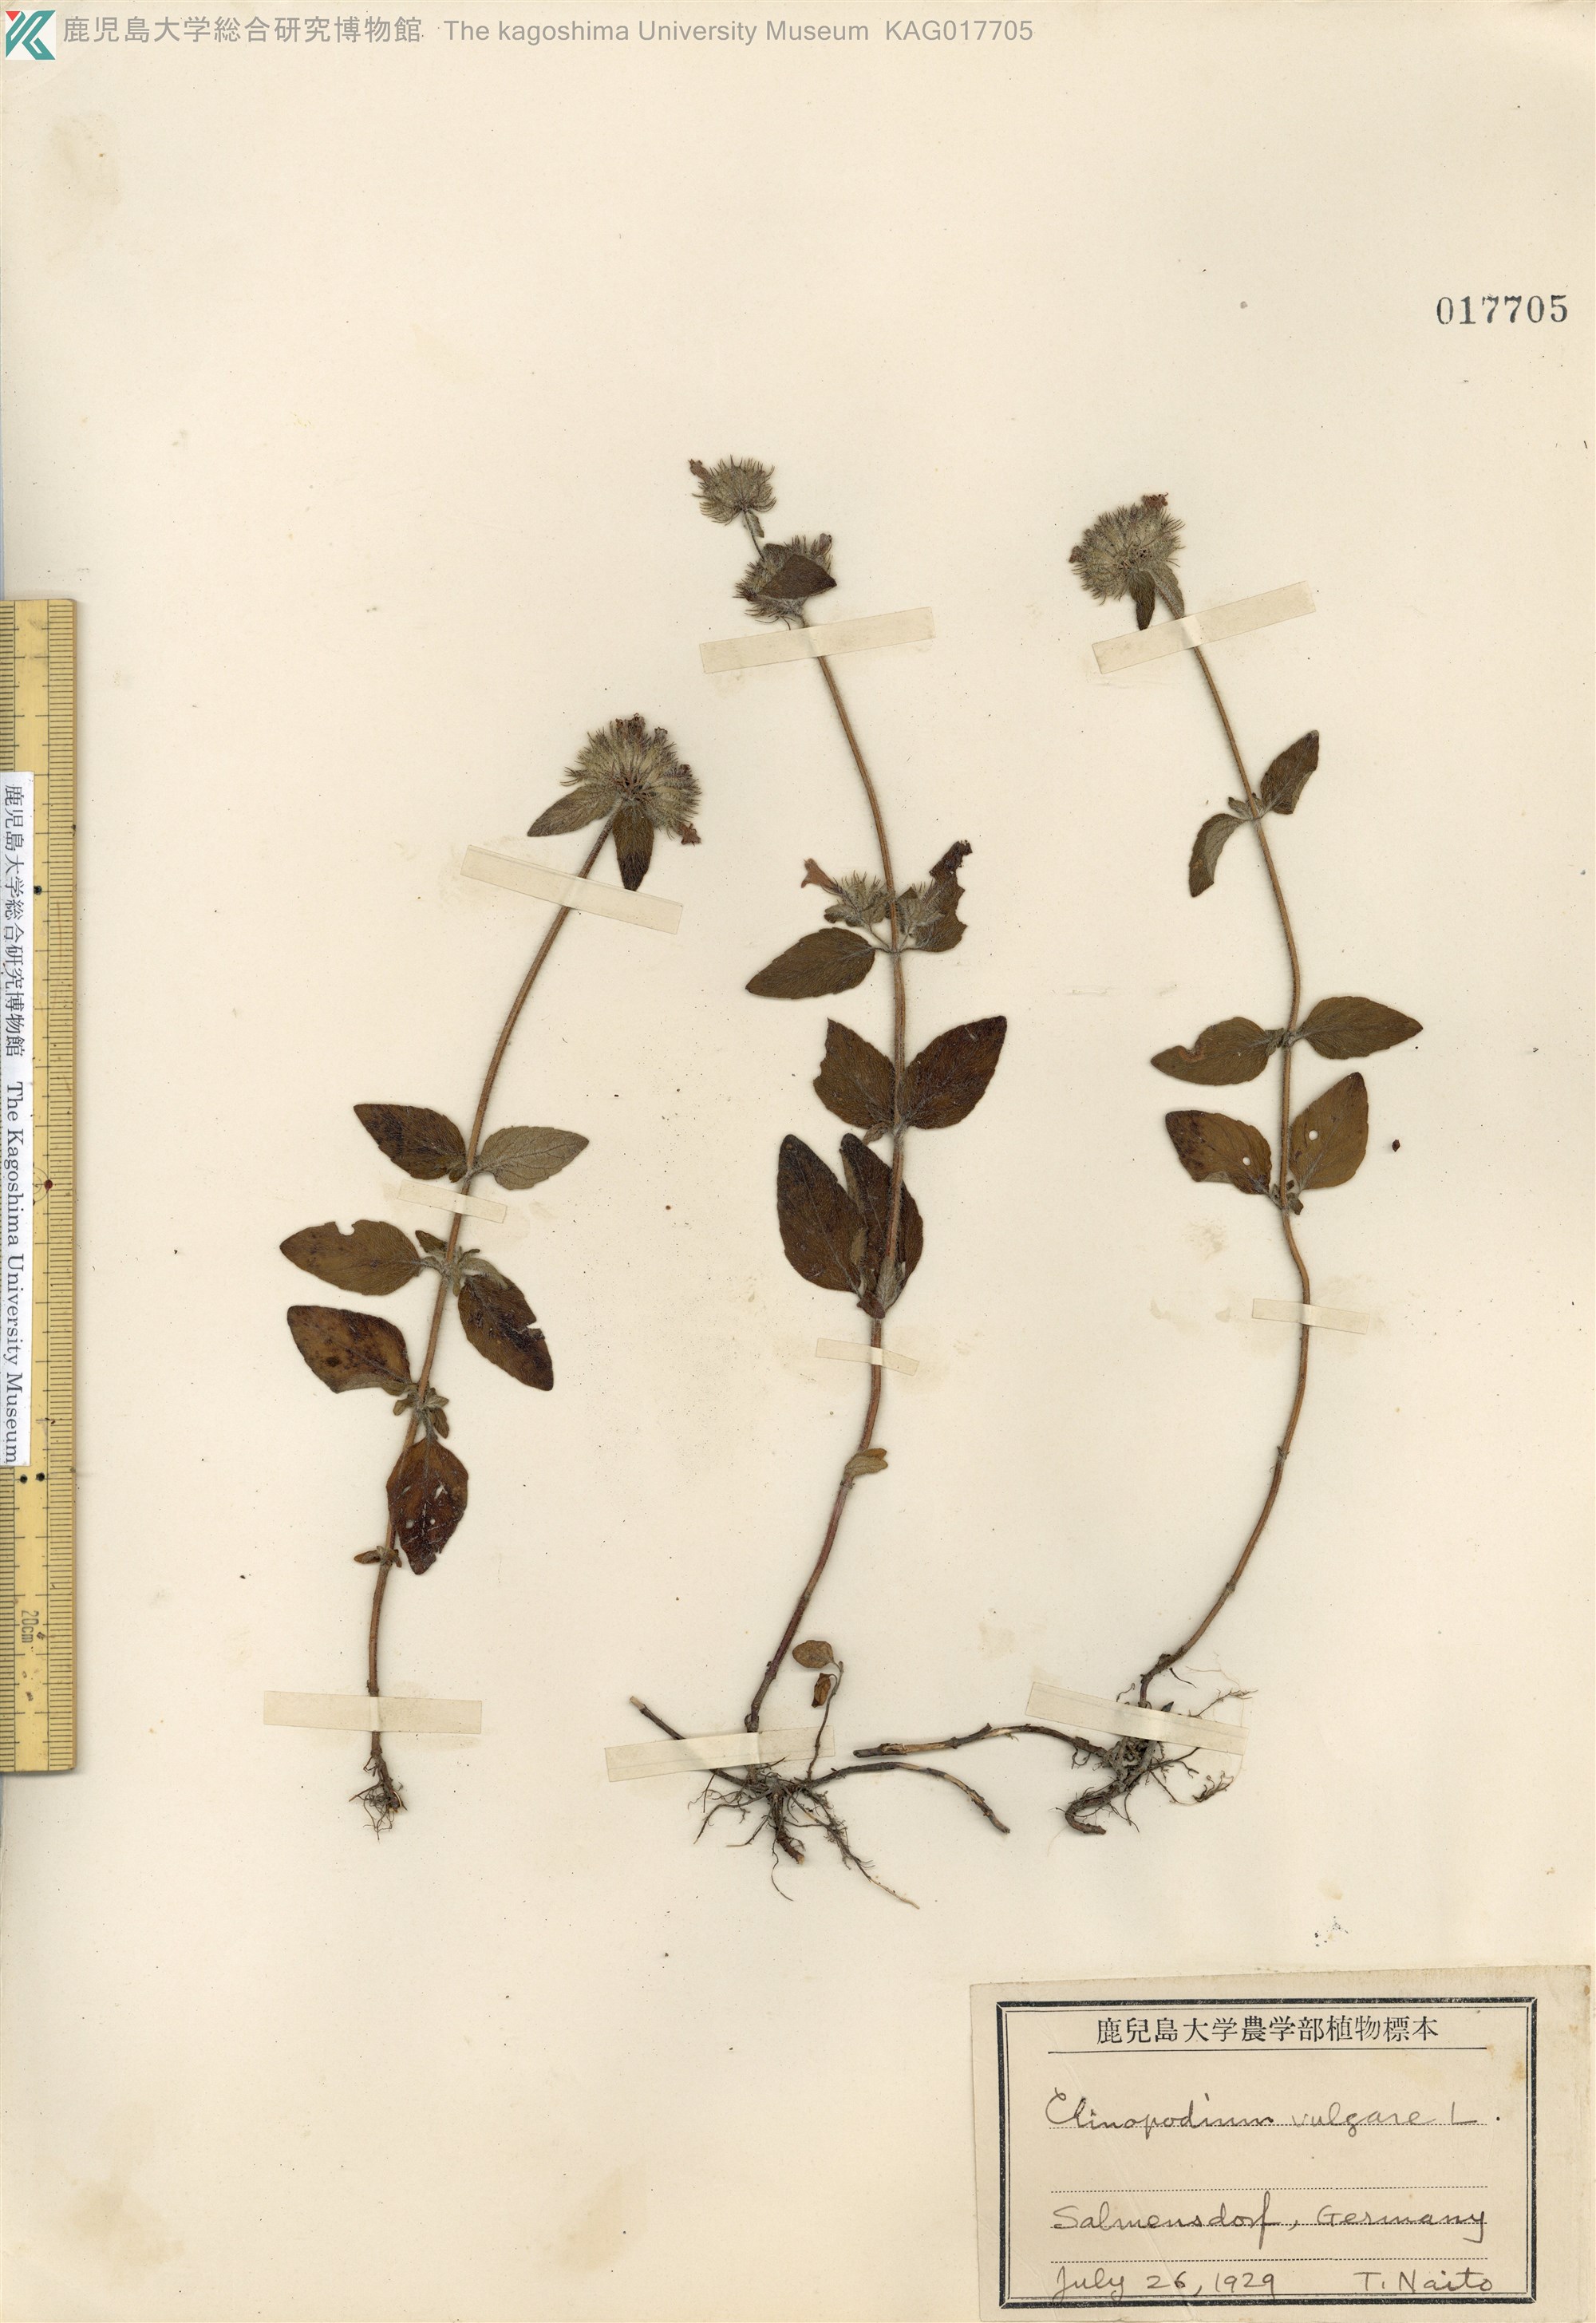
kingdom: Plantae
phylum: Tracheophyta
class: Magnoliopsida
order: Lamiales
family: Lamiaceae
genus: Clinopodium
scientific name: Clinopodium vulgare
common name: Wild basil
